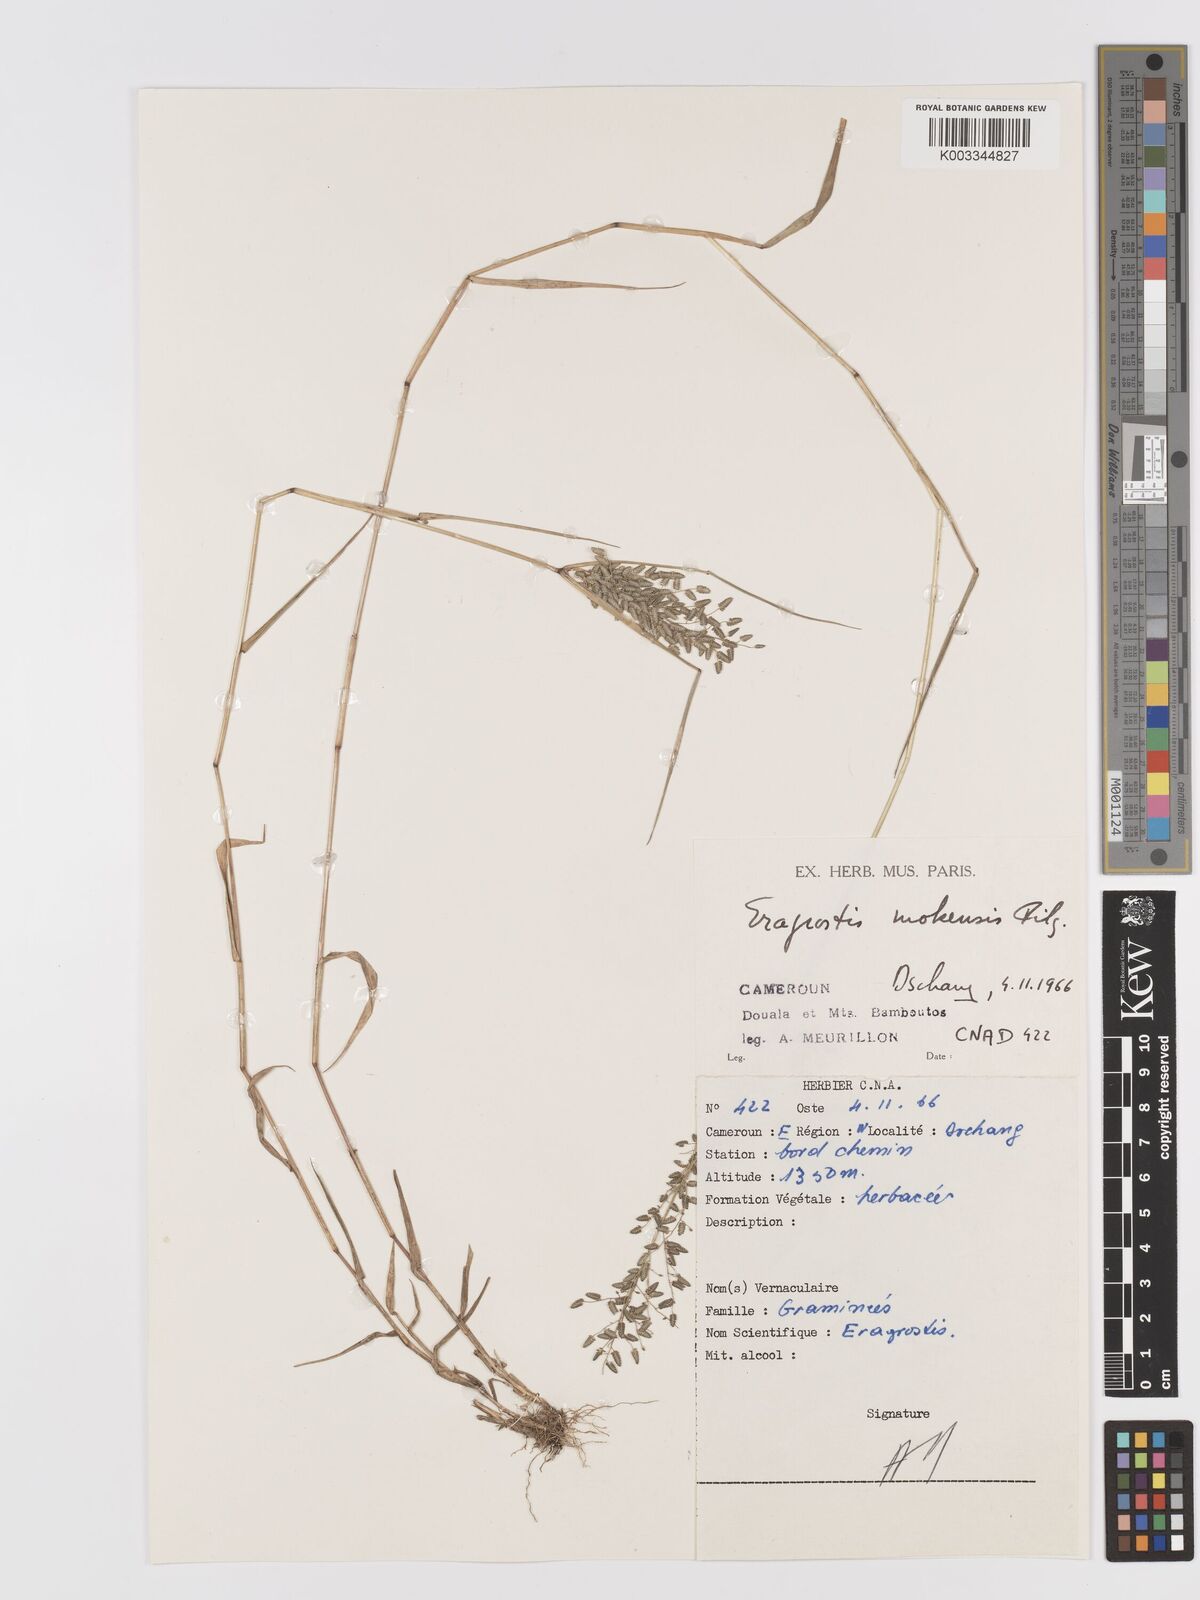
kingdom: Plantae
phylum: Tracheophyta
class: Liliopsida
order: Poales
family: Poaceae
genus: Eragrostis
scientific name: Eragrostis mokensis
